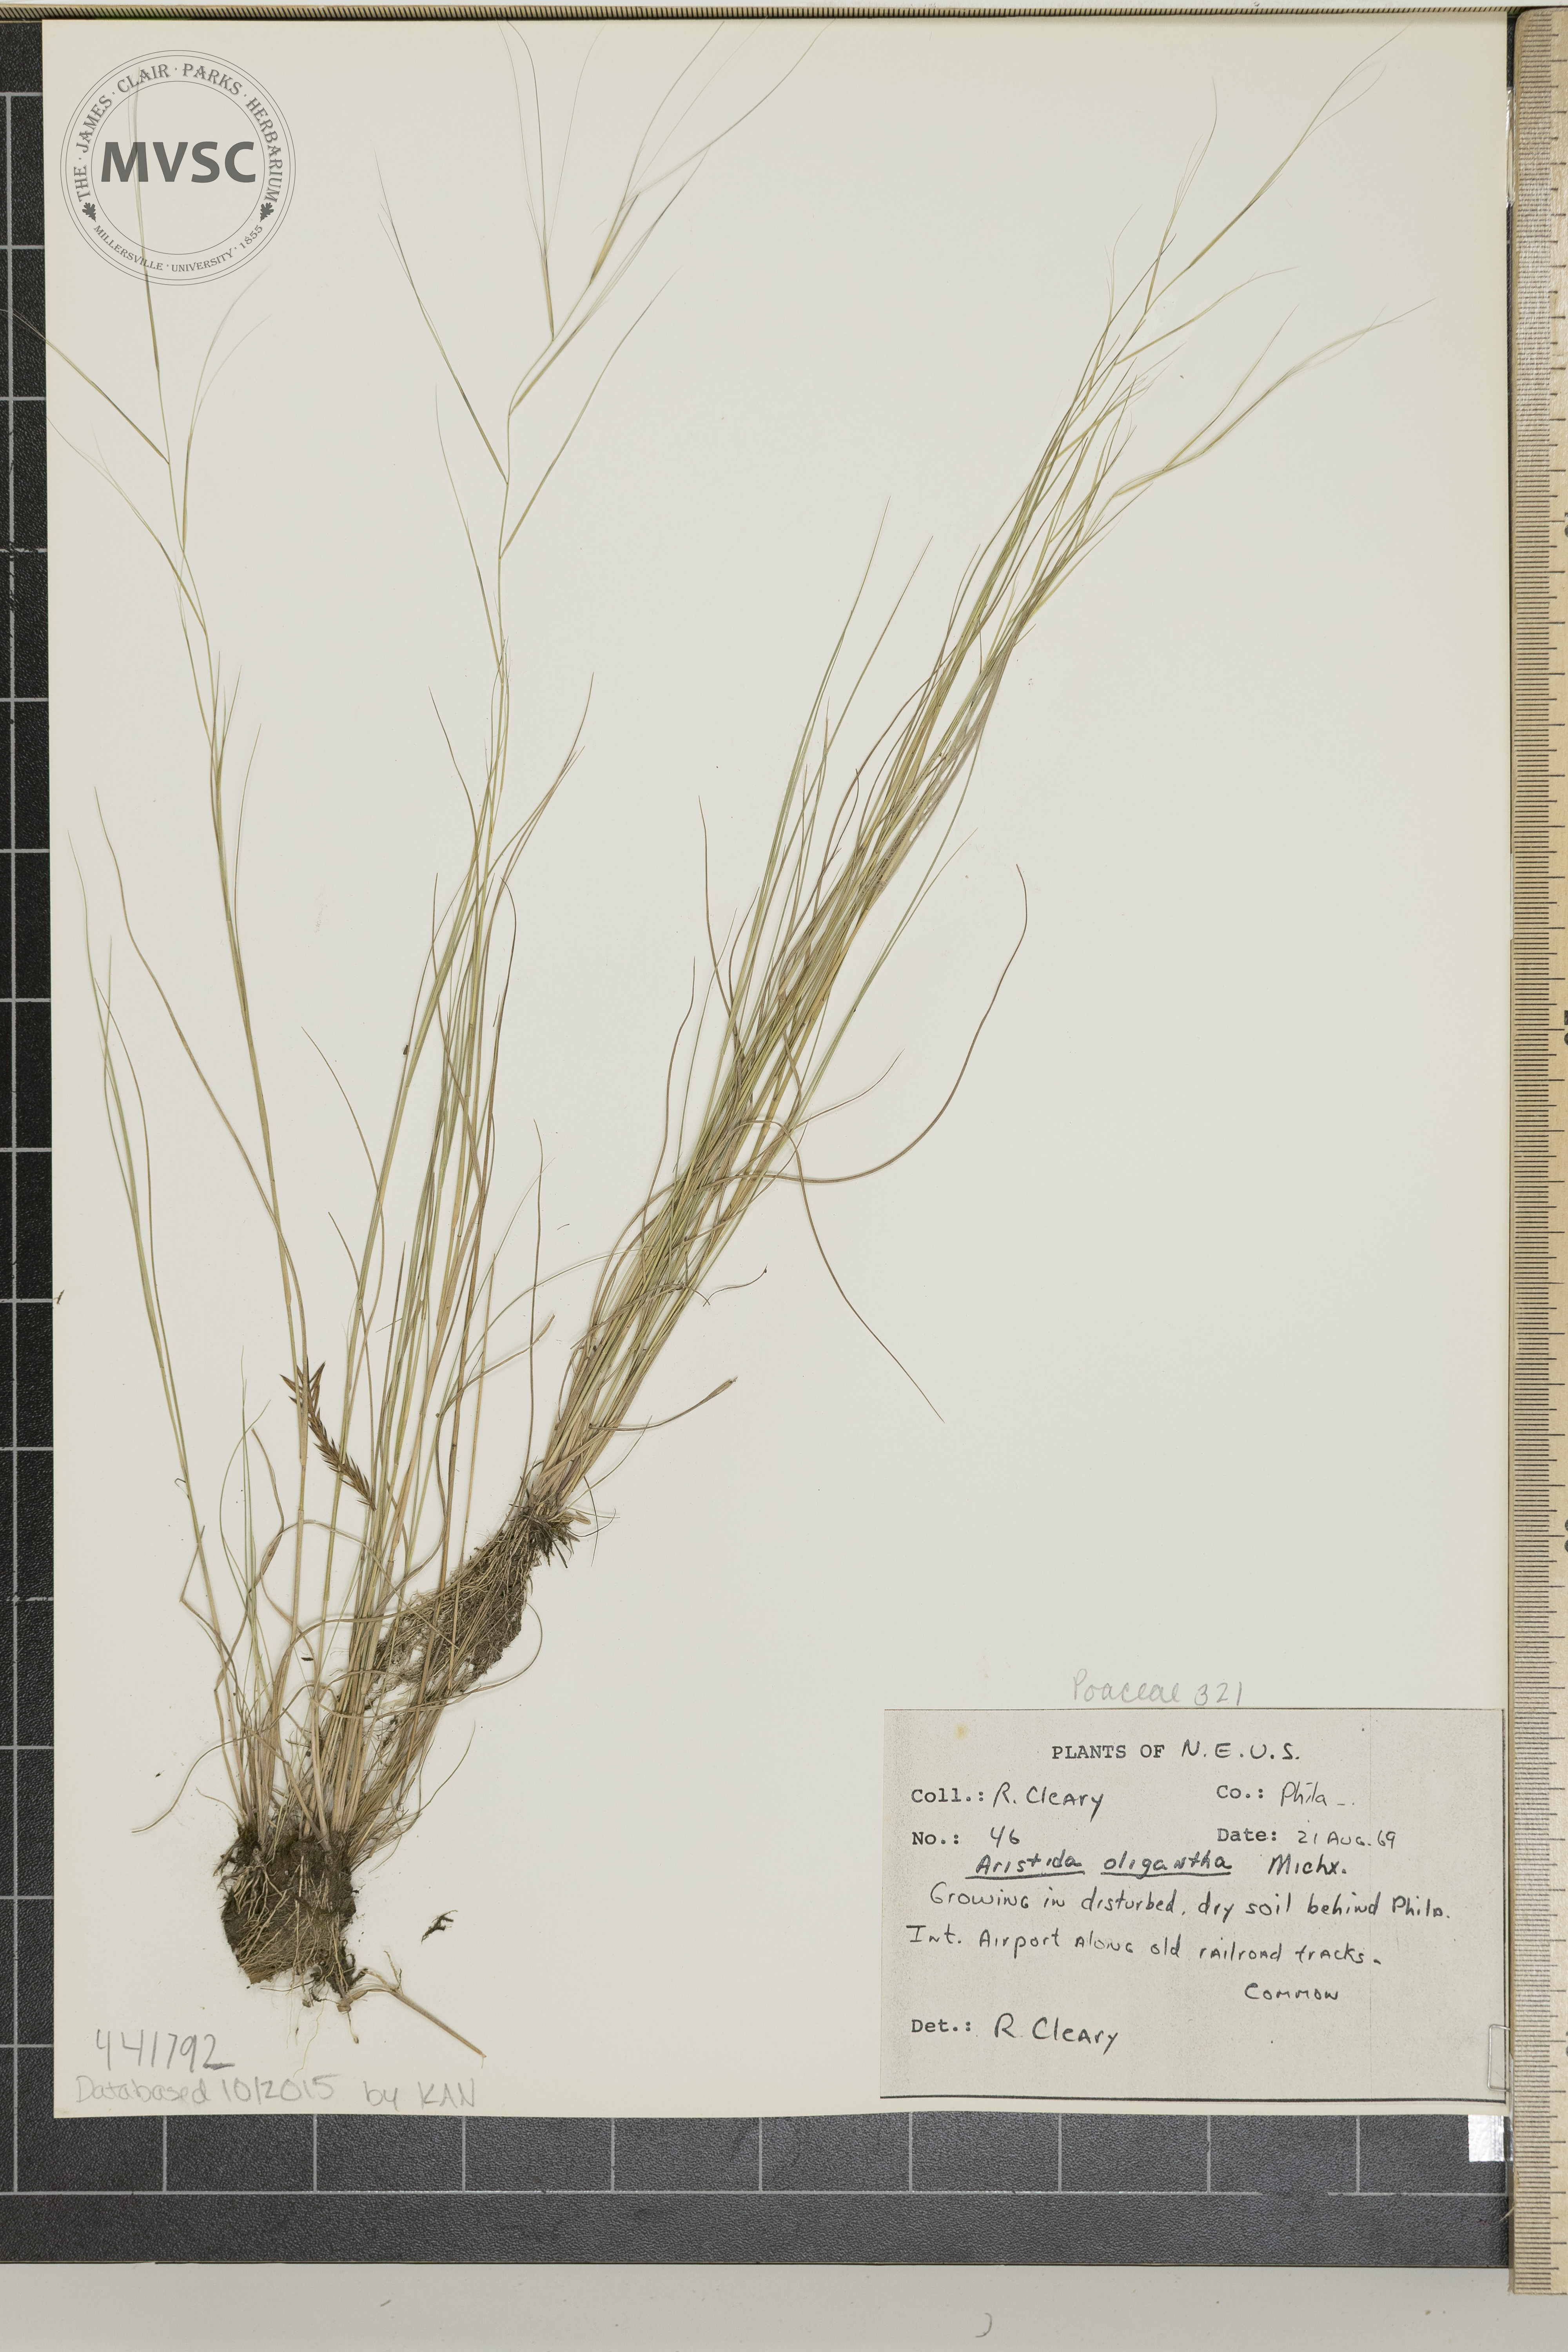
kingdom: Plantae
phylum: Tracheophyta
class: Liliopsida
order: Poales
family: Poaceae
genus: Aristida
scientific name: Aristida oligantha
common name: Few-flowered aristida
